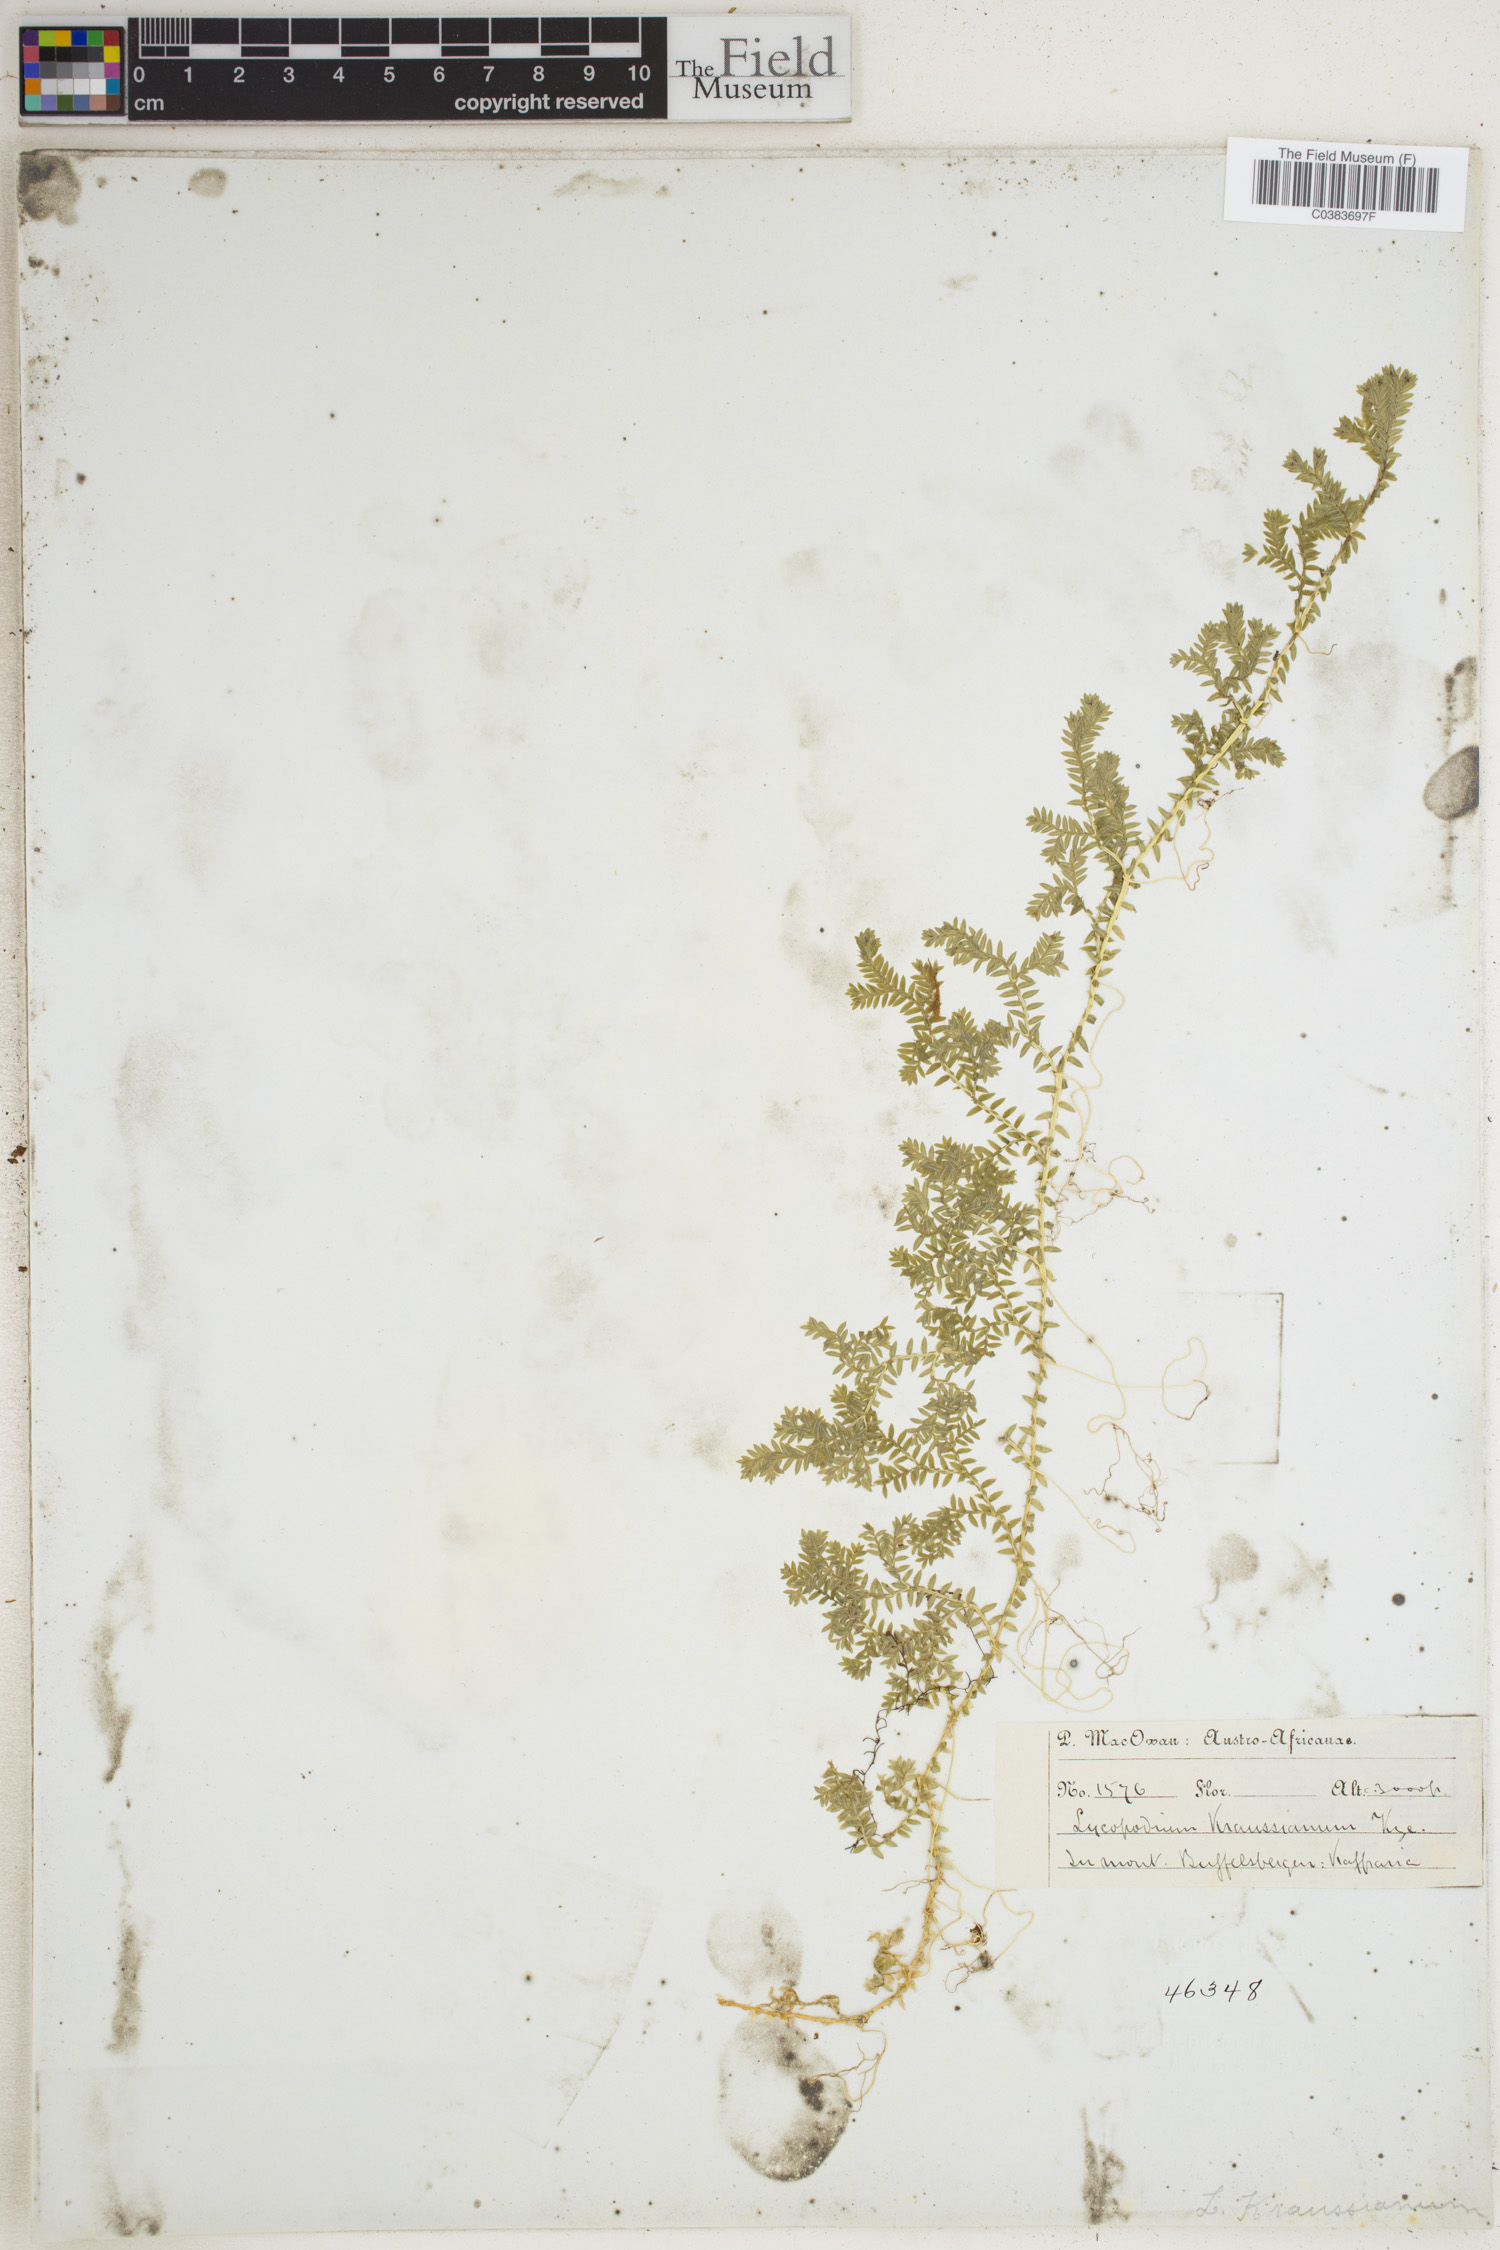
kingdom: Plantae
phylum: Tracheophyta
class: Lycopodiopsida
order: Selaginellales
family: Selaginellaceae
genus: Selaginella
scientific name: Selaginella kraussiana
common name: Krauss' spikemoss
